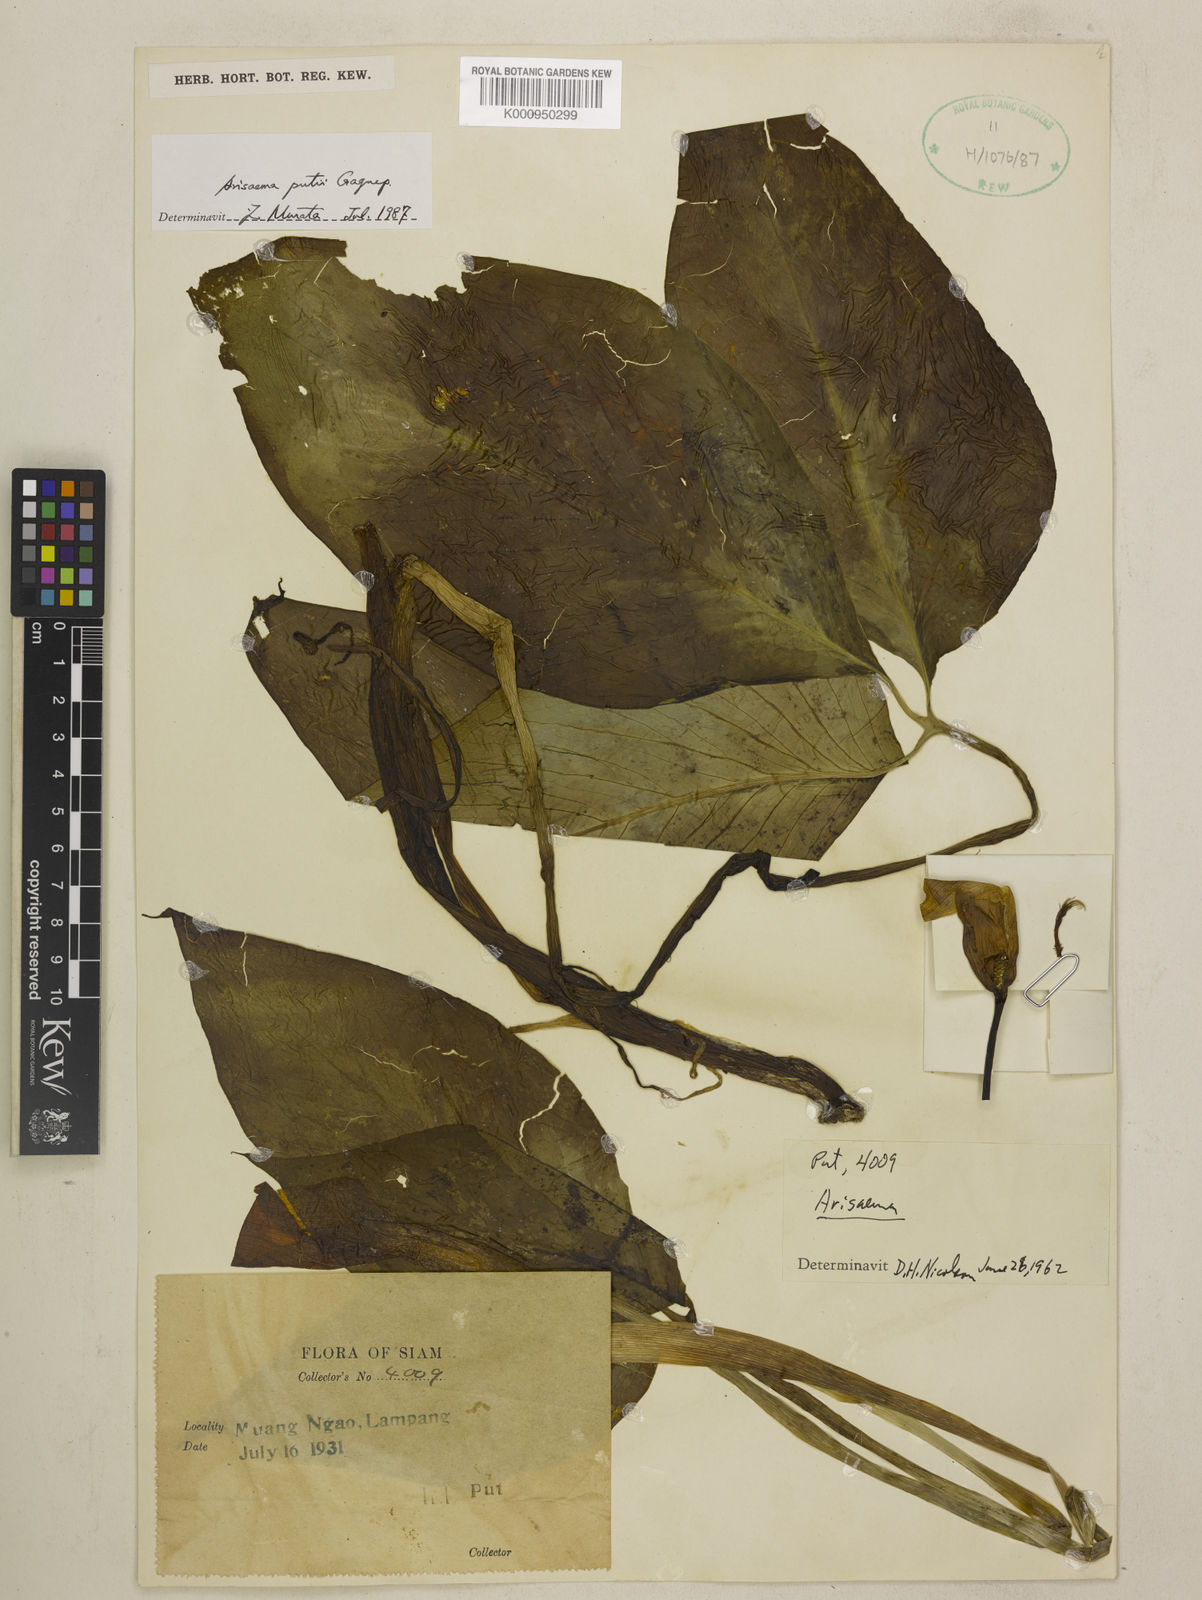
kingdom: Plantae
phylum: Tracheophyta
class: Liliopsida
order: Alismatales
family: Araceae
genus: Arisaema
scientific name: Arisaema fimbriatum
